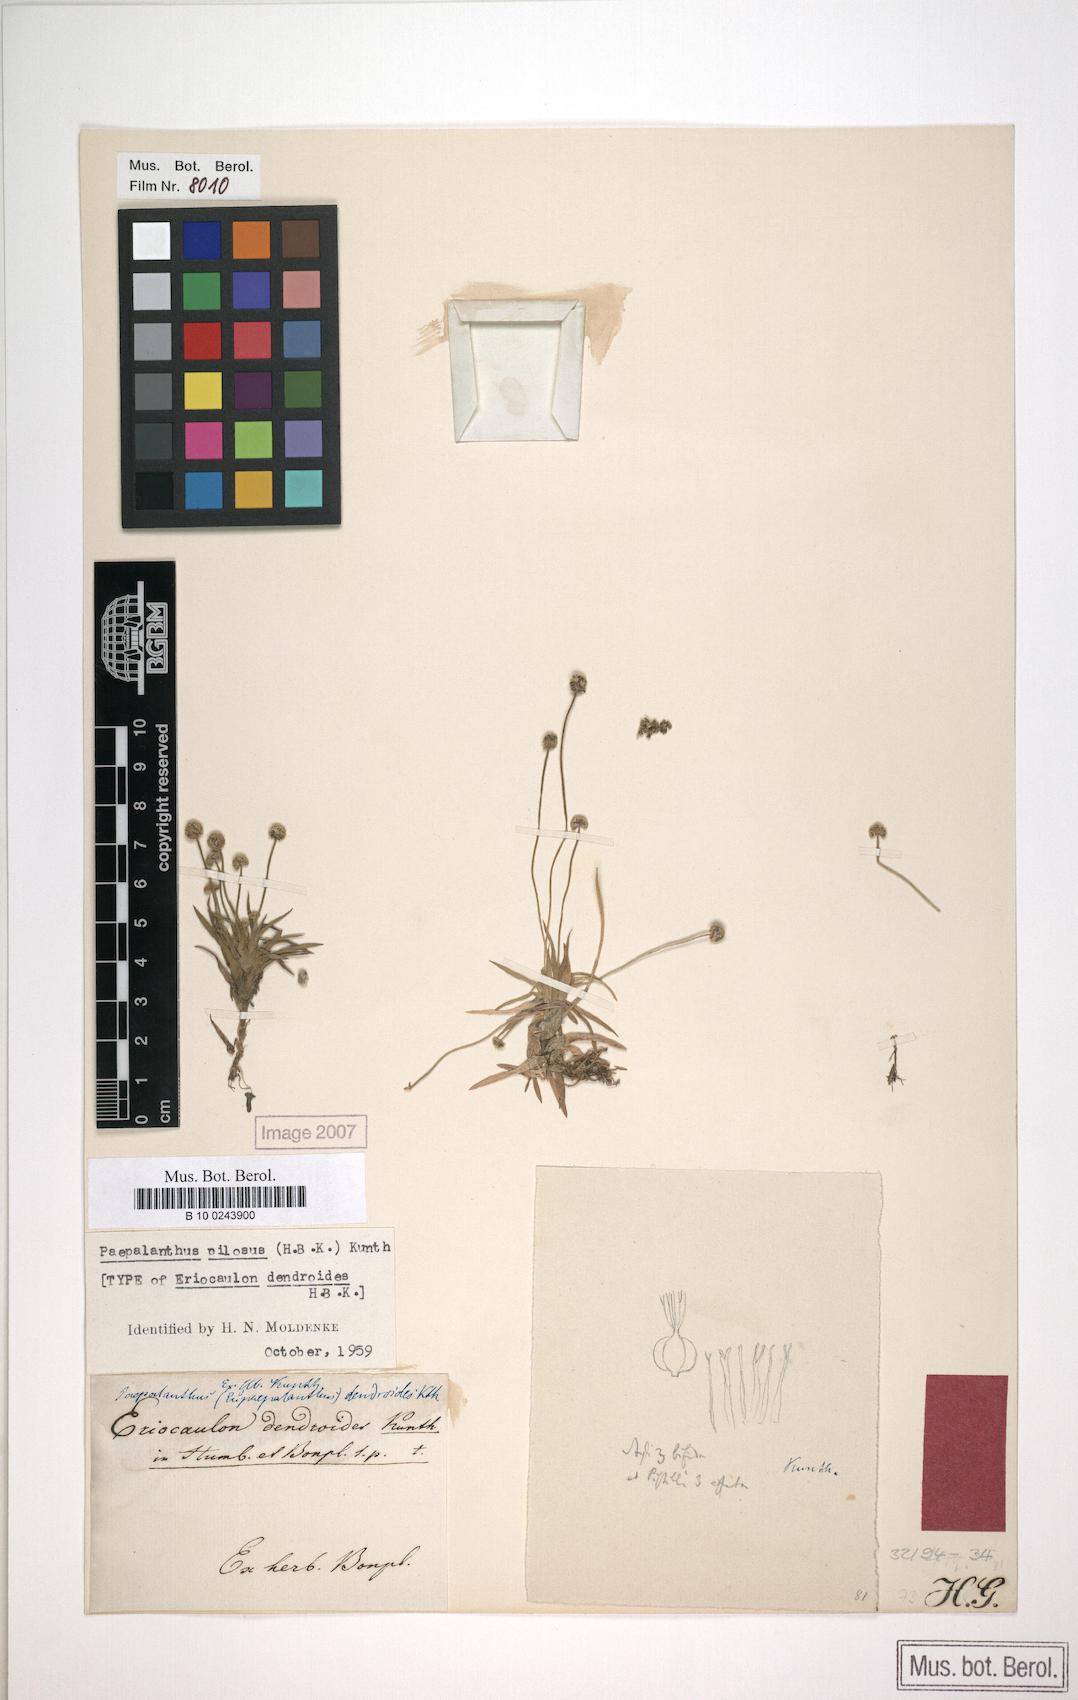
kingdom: Plantae
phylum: Tracheophyta
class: Liliopsida
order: Poales
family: Eriocaulaceae
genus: Paepalanthus
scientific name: Paepalanthus pilosus
